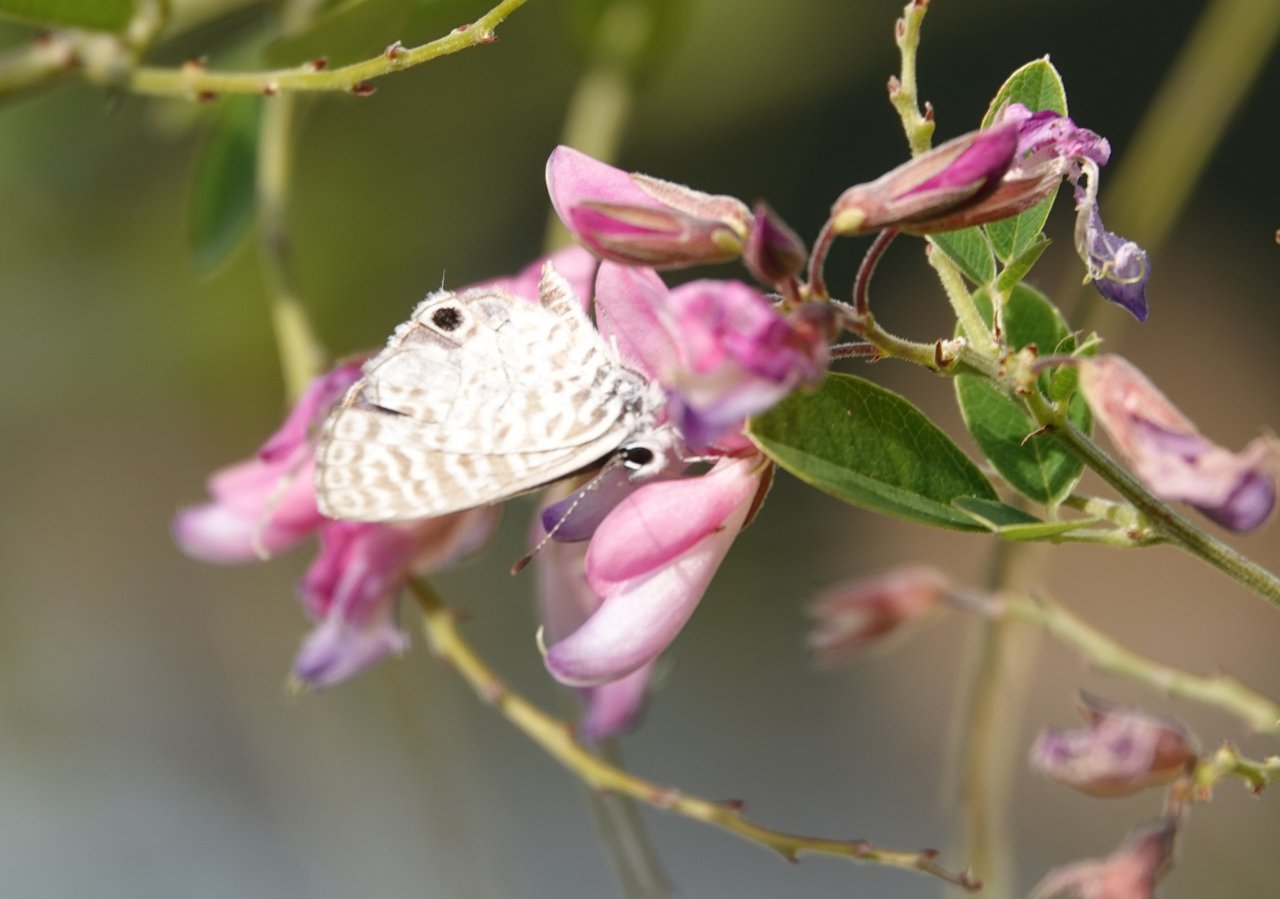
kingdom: Animalia
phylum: Arthropoda
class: Insecta
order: Lepidoptera
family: Lycaenidae
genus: Leptotes
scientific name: Leptotes cassius
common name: Cassius Blue
